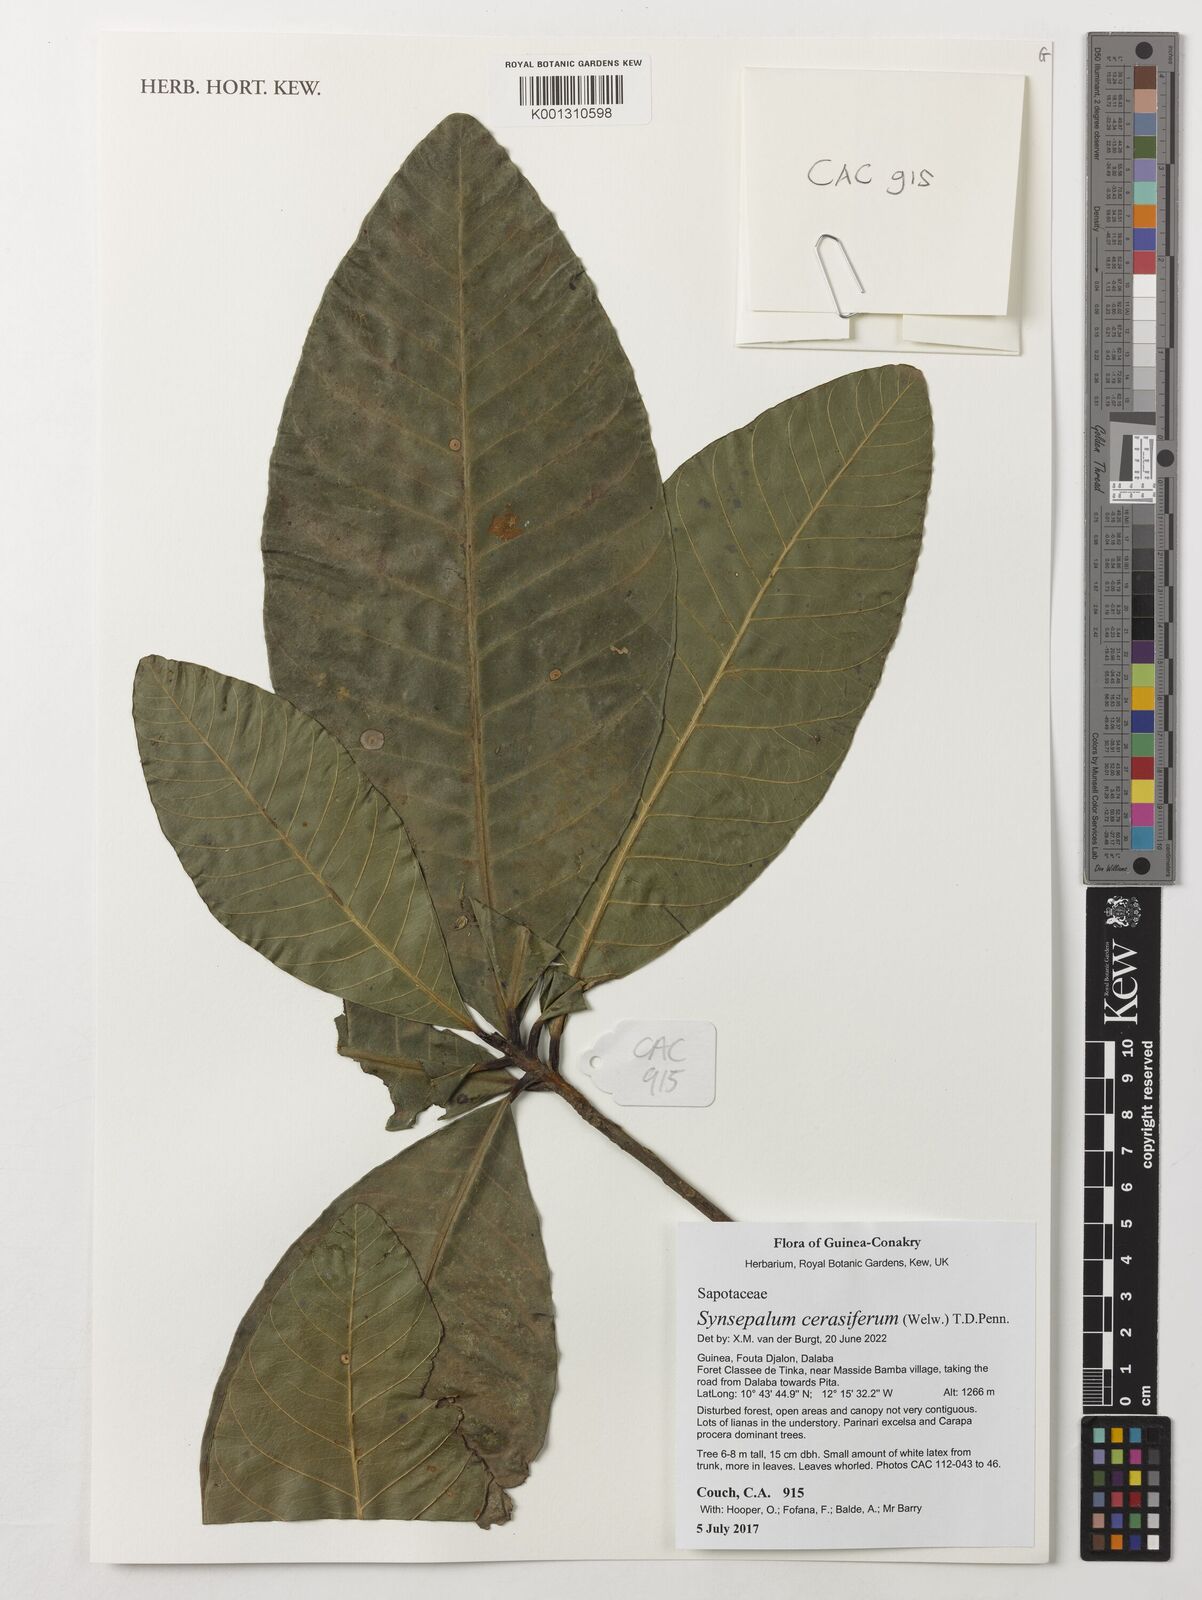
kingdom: Plantae
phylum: Tracheophyta
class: Magnoliopsida
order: Ericales
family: Sapotaceae
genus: Synsepalum
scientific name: Synsepalum cerasiferum
